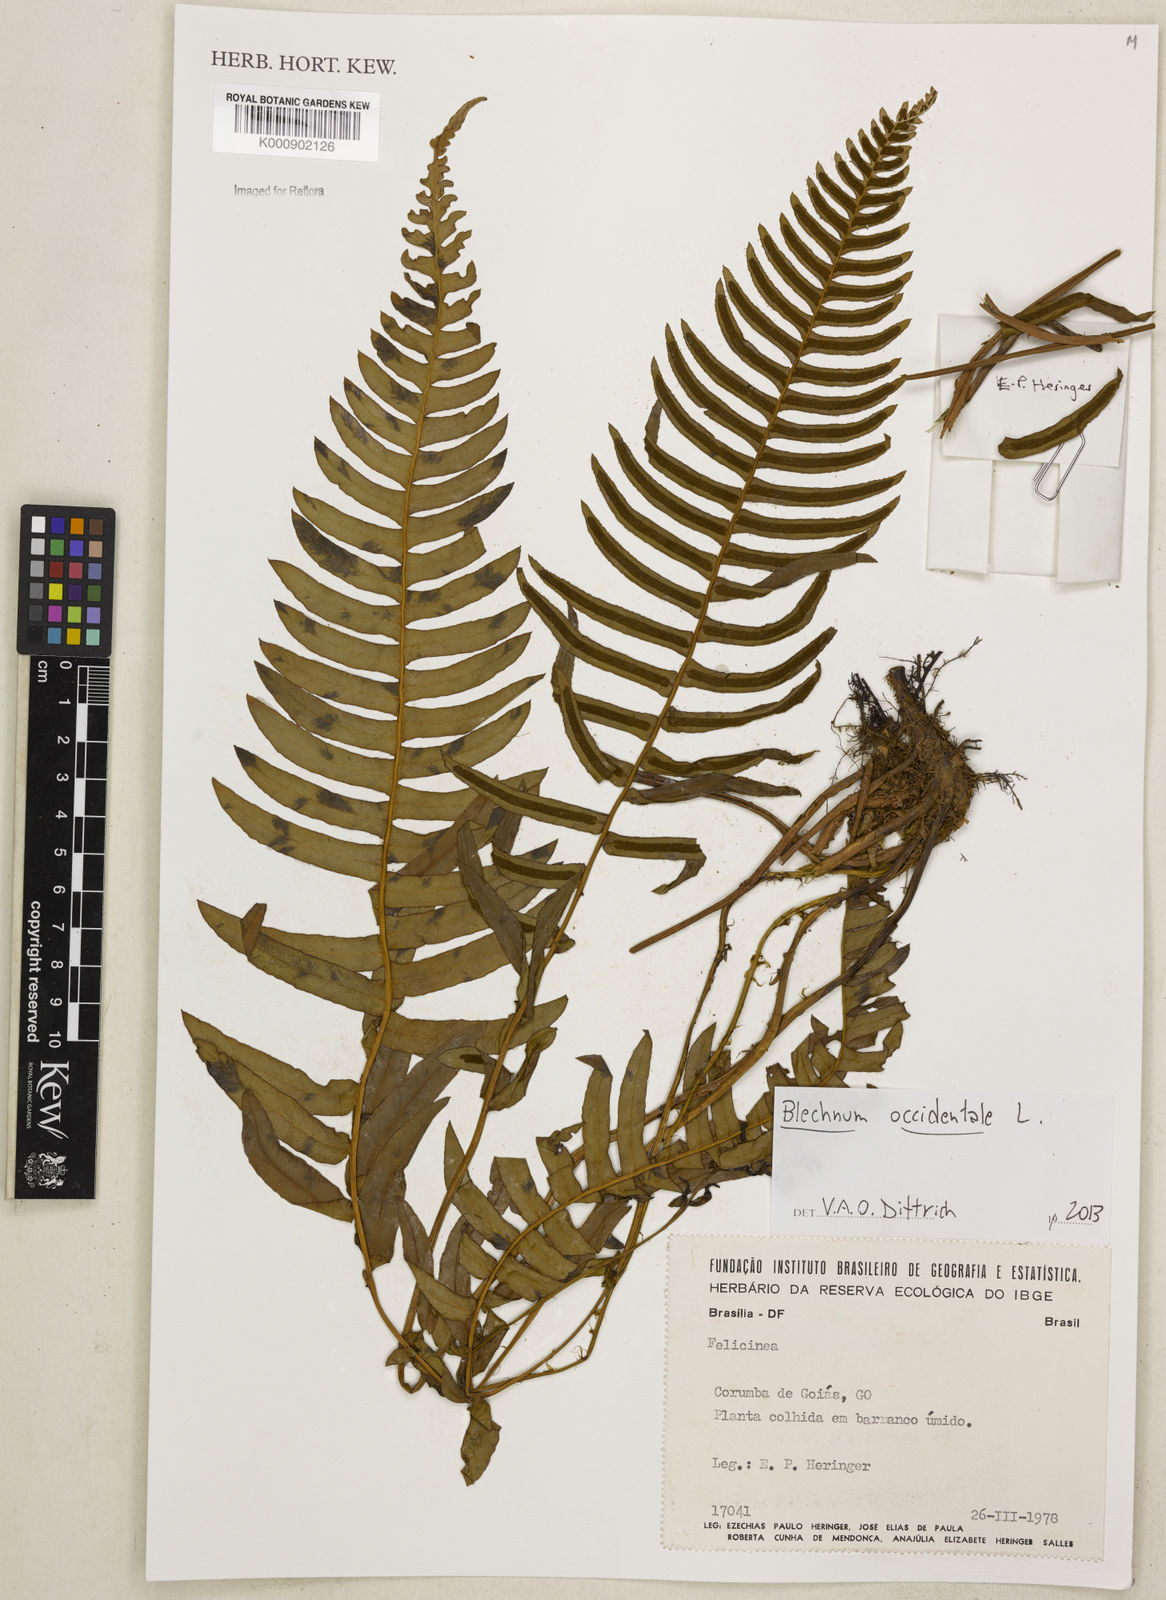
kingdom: Plantae
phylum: Tracheophyta
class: Polypodiopsida
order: Polypodiales
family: Blechnaceae
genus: Blechnum
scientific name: Blechnum occidentale
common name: Hammock fern
